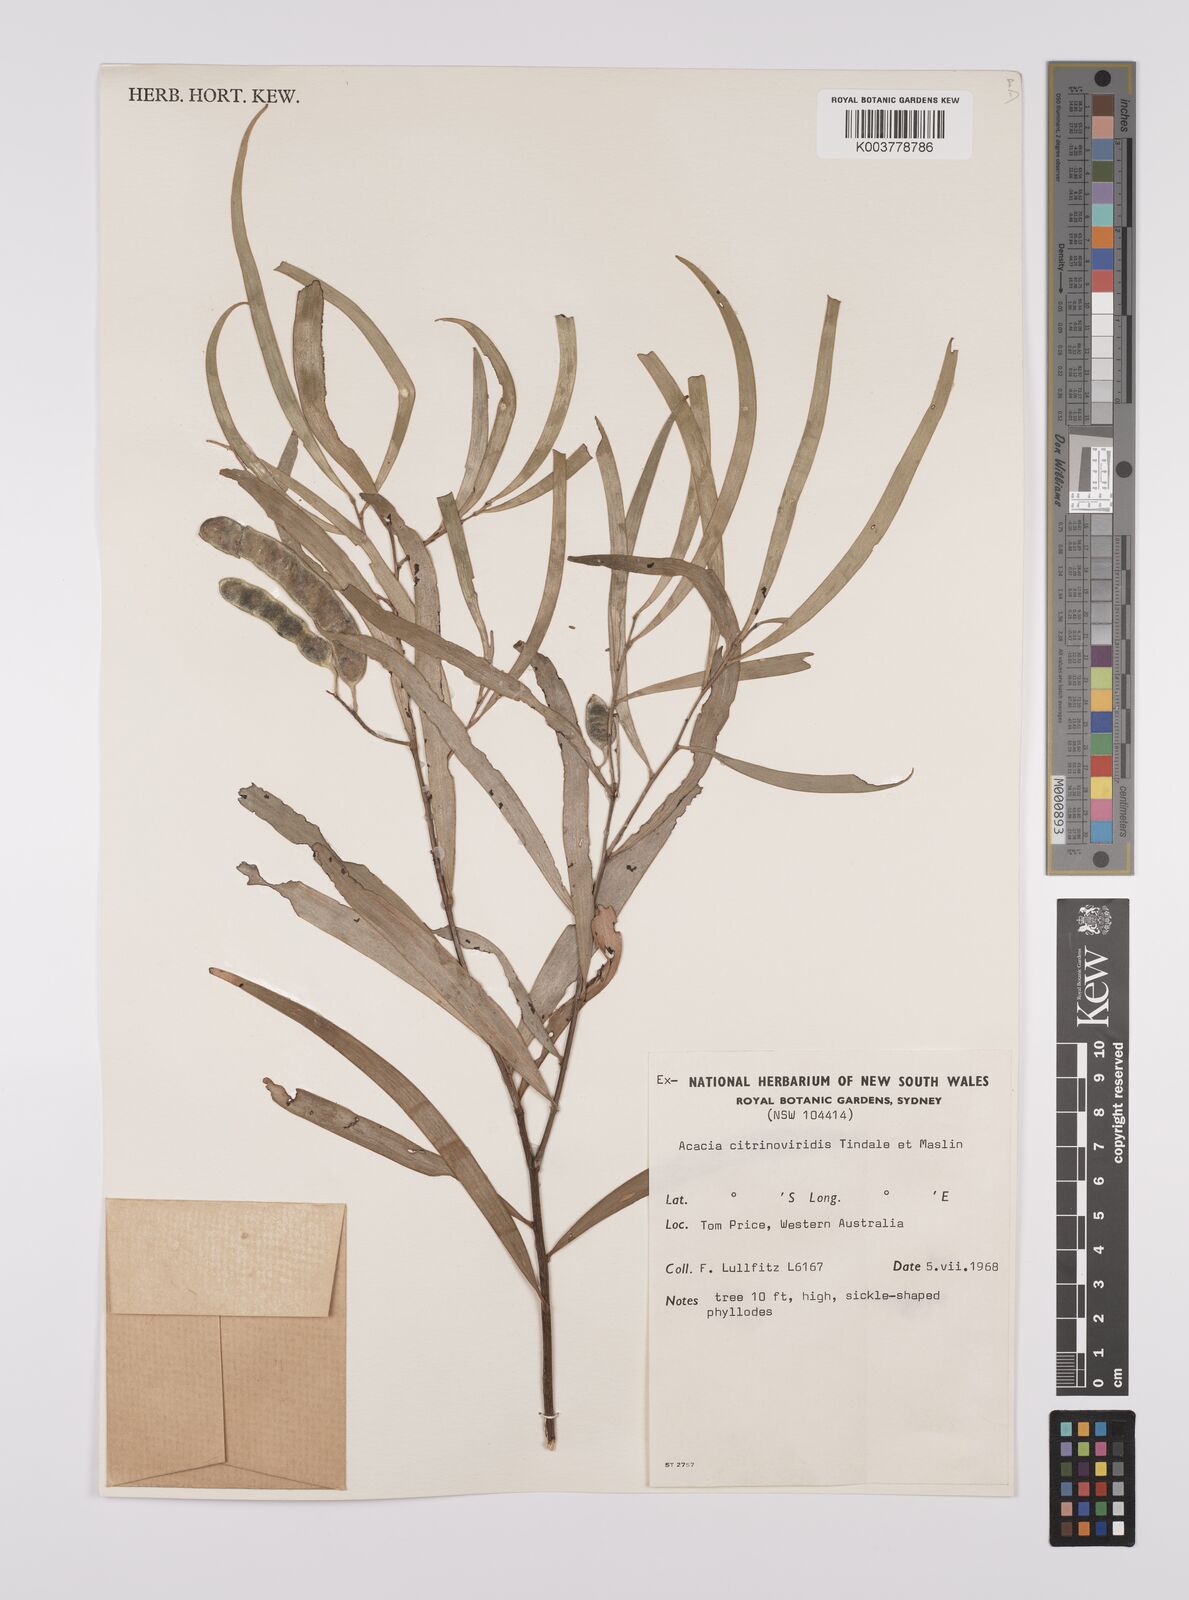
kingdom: Plantae
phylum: Tracheophyta
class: Magnoliopsida
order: Fabales
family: Fabaceae
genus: Acacia
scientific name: Acacia citrinoviridis
